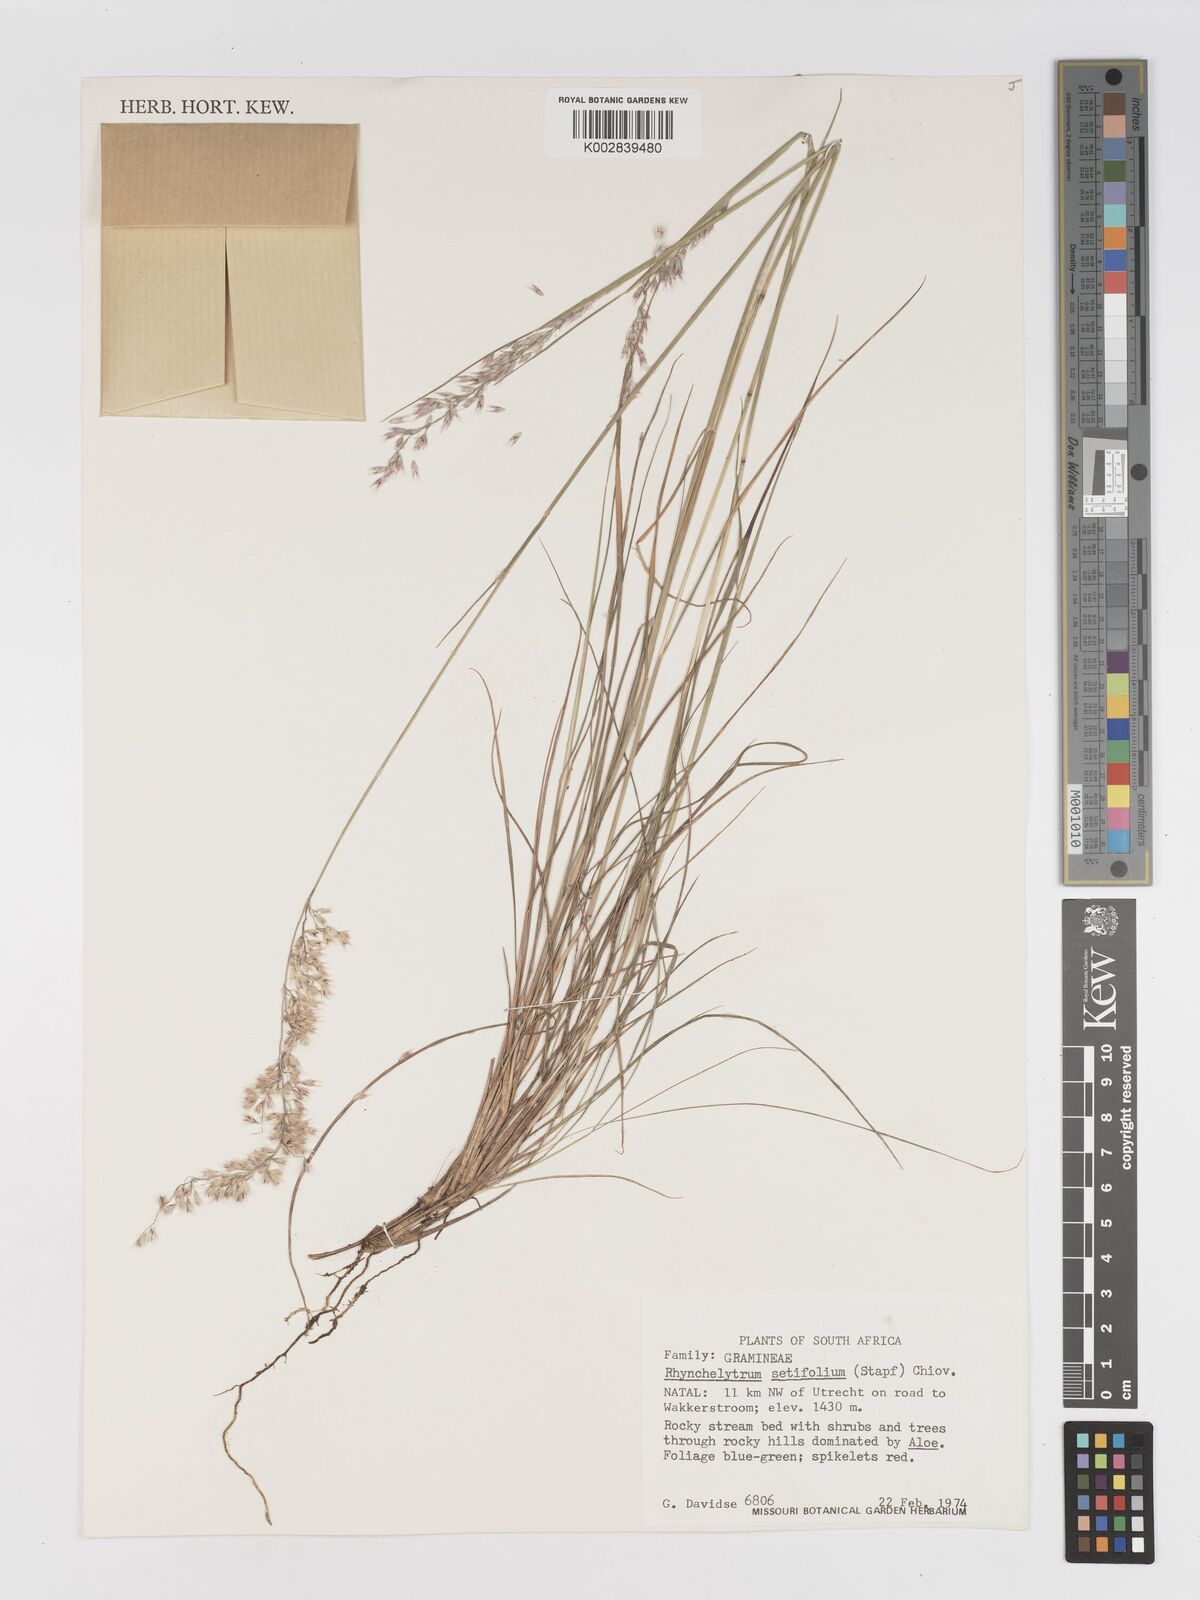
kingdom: Plantae
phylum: Tracheophyta
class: Liliopsida
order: Poales
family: Poaceae
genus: Melinis
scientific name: Melinis nerviglumis
